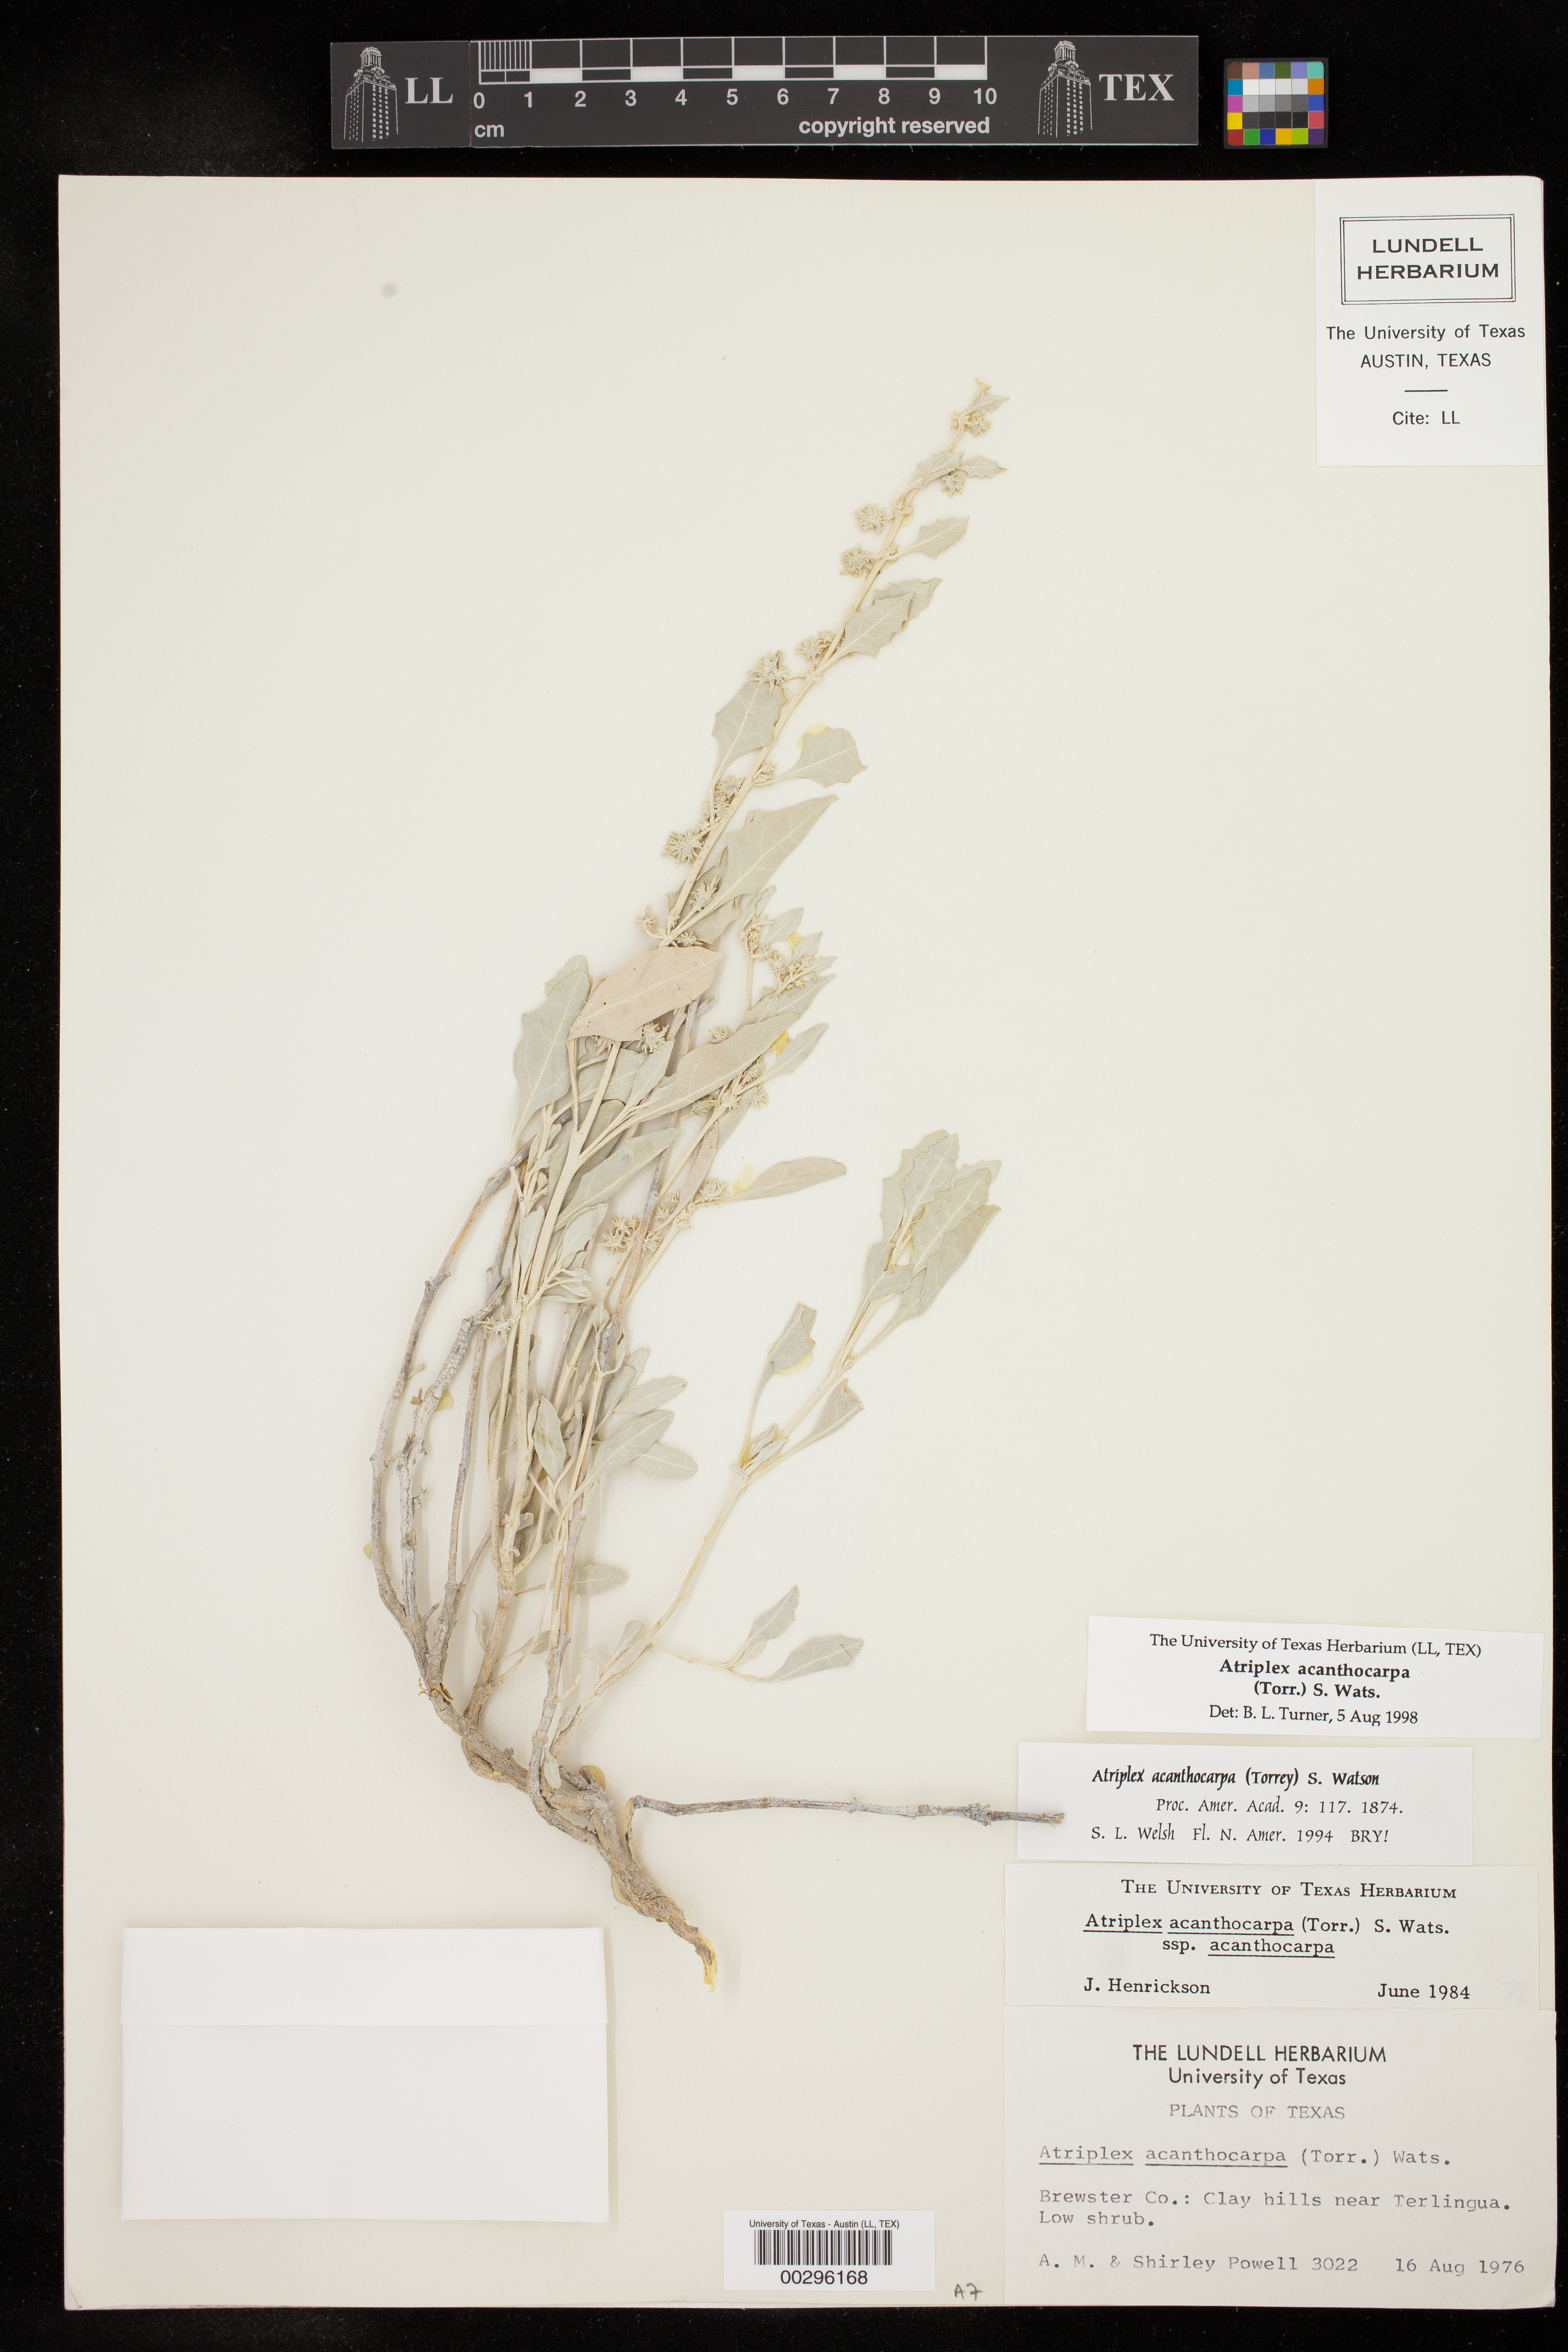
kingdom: Plantae
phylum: Tracheophyta
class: Magnoliopsida
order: Caryophyllales
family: Amaranthaceae
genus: Atriplex
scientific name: Atriplex acanthocarpa
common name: Burscale
